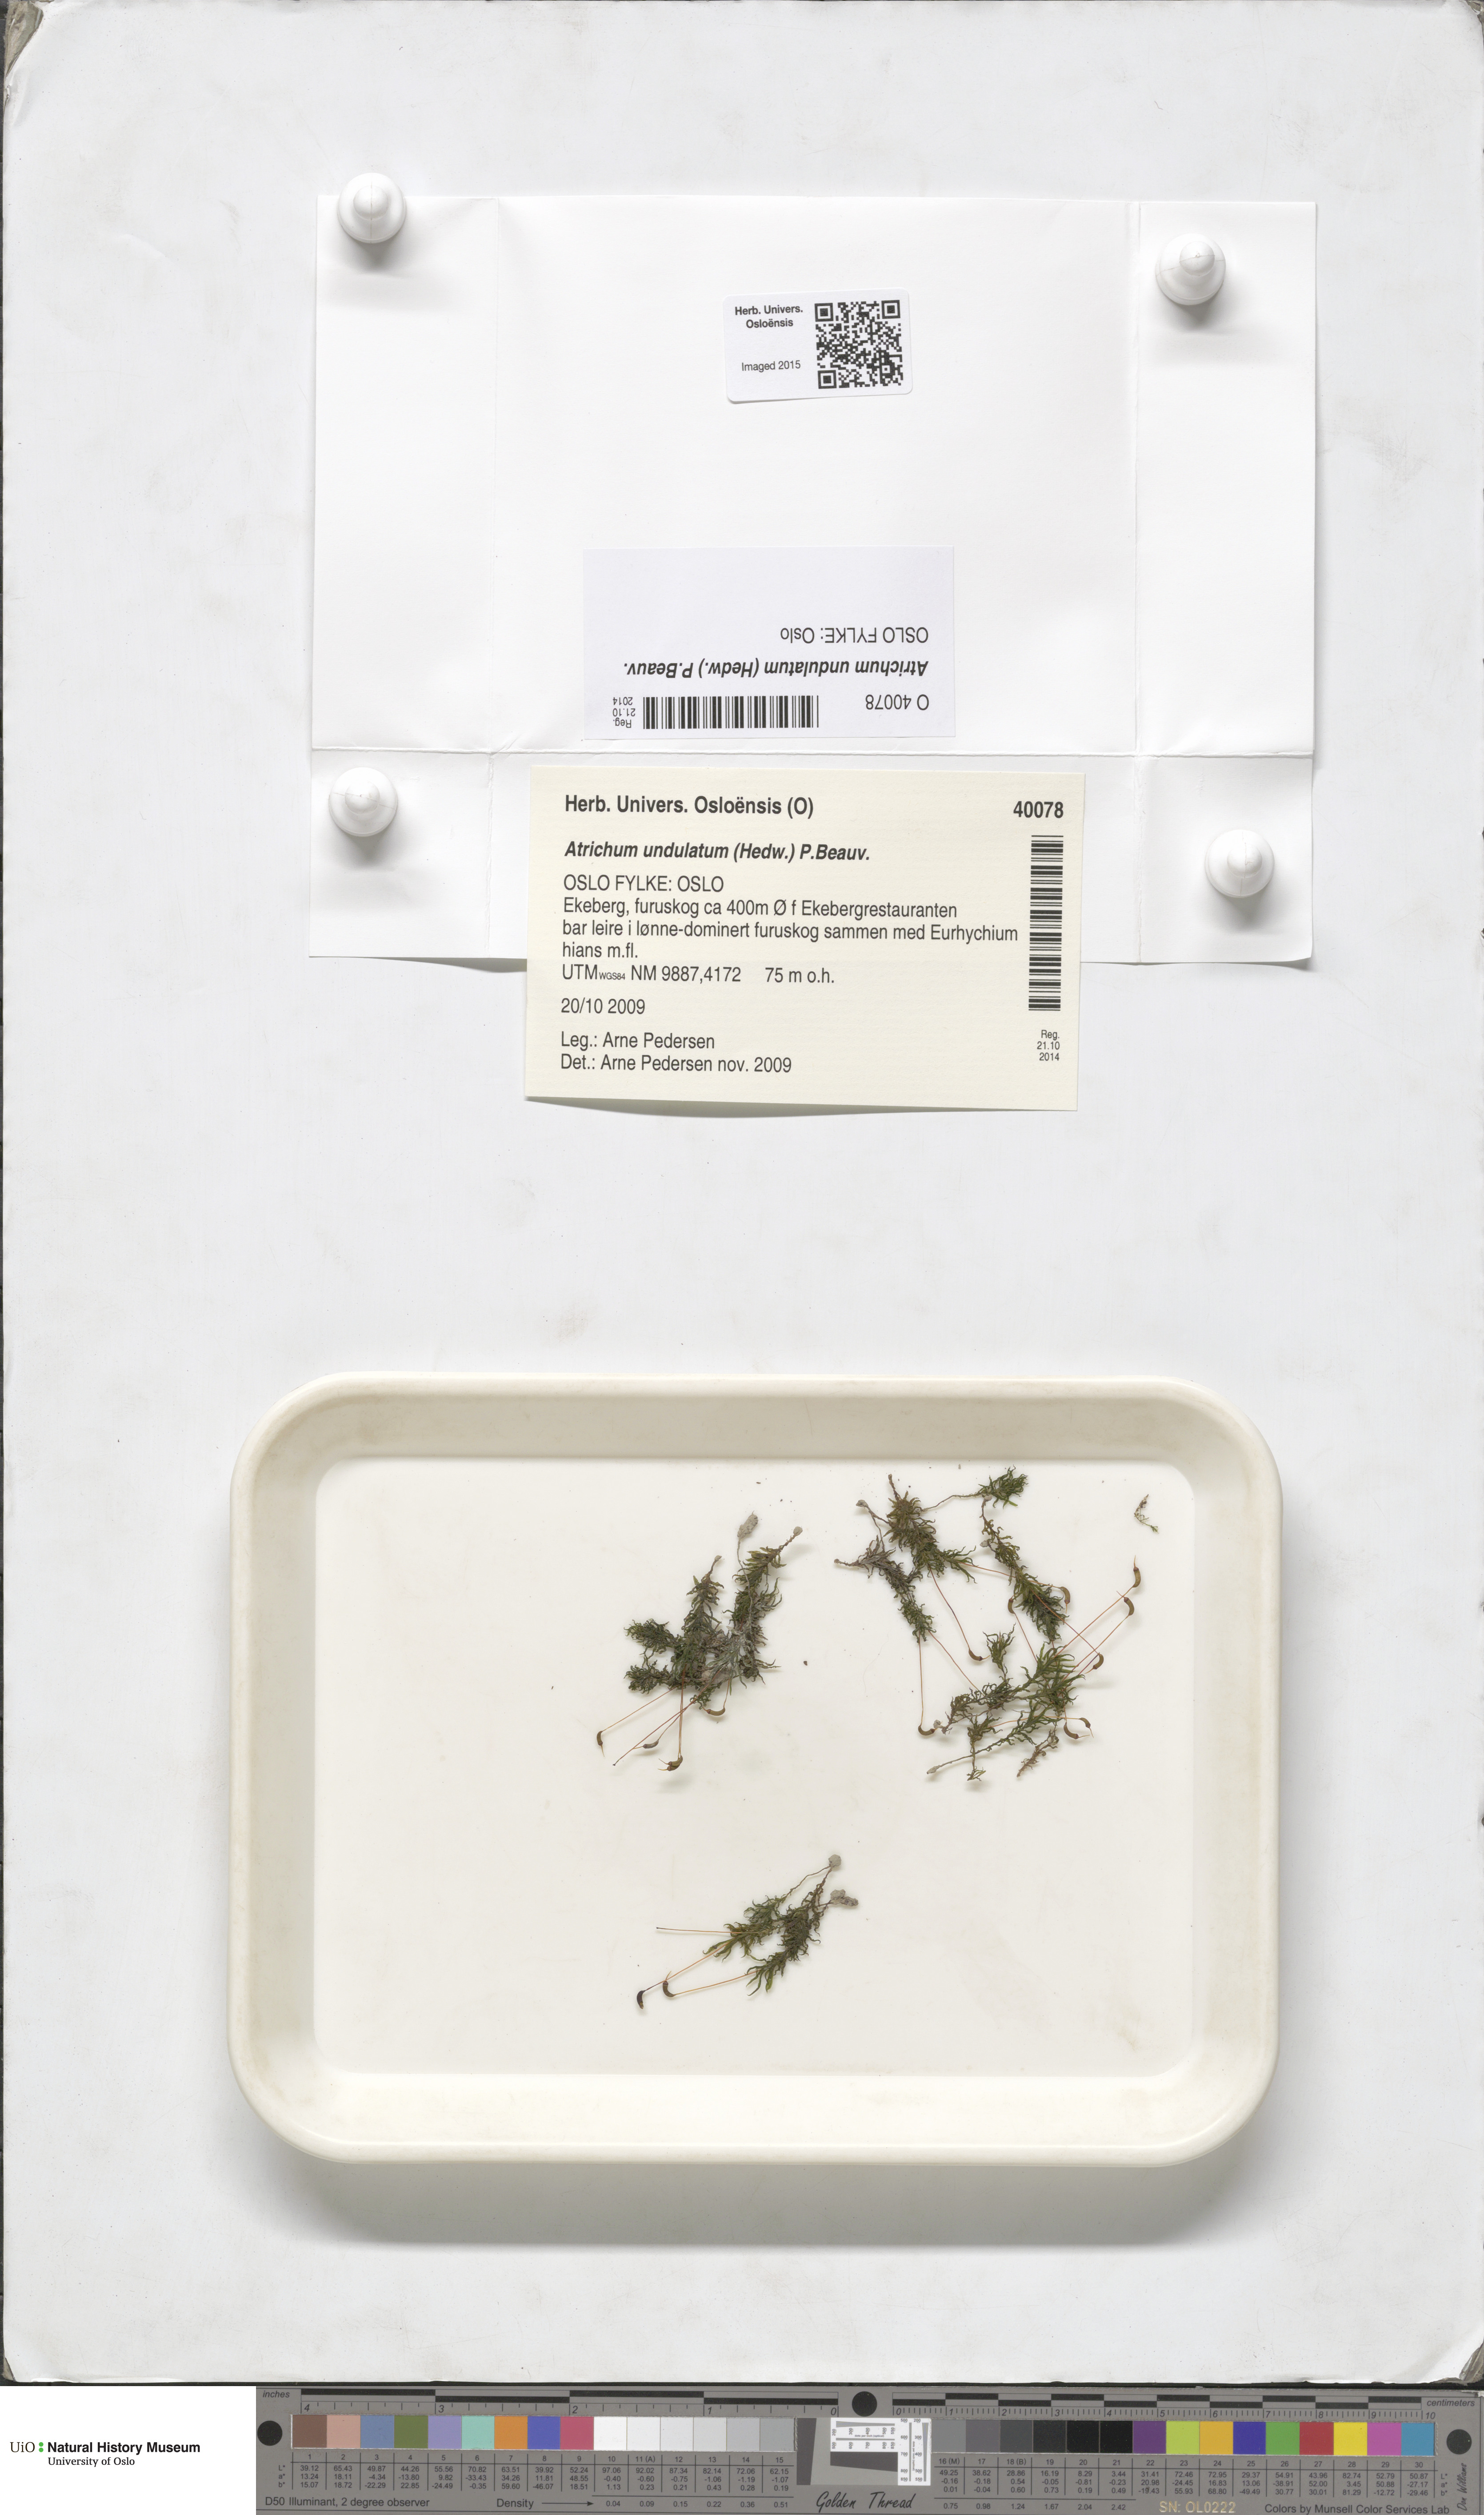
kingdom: Plantae
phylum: Bryophyta
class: Polytrichopsida
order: Polytrichales
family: Polytrichaceae
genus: Atrichum
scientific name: Atrichum undulatum
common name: Common smoothcap
